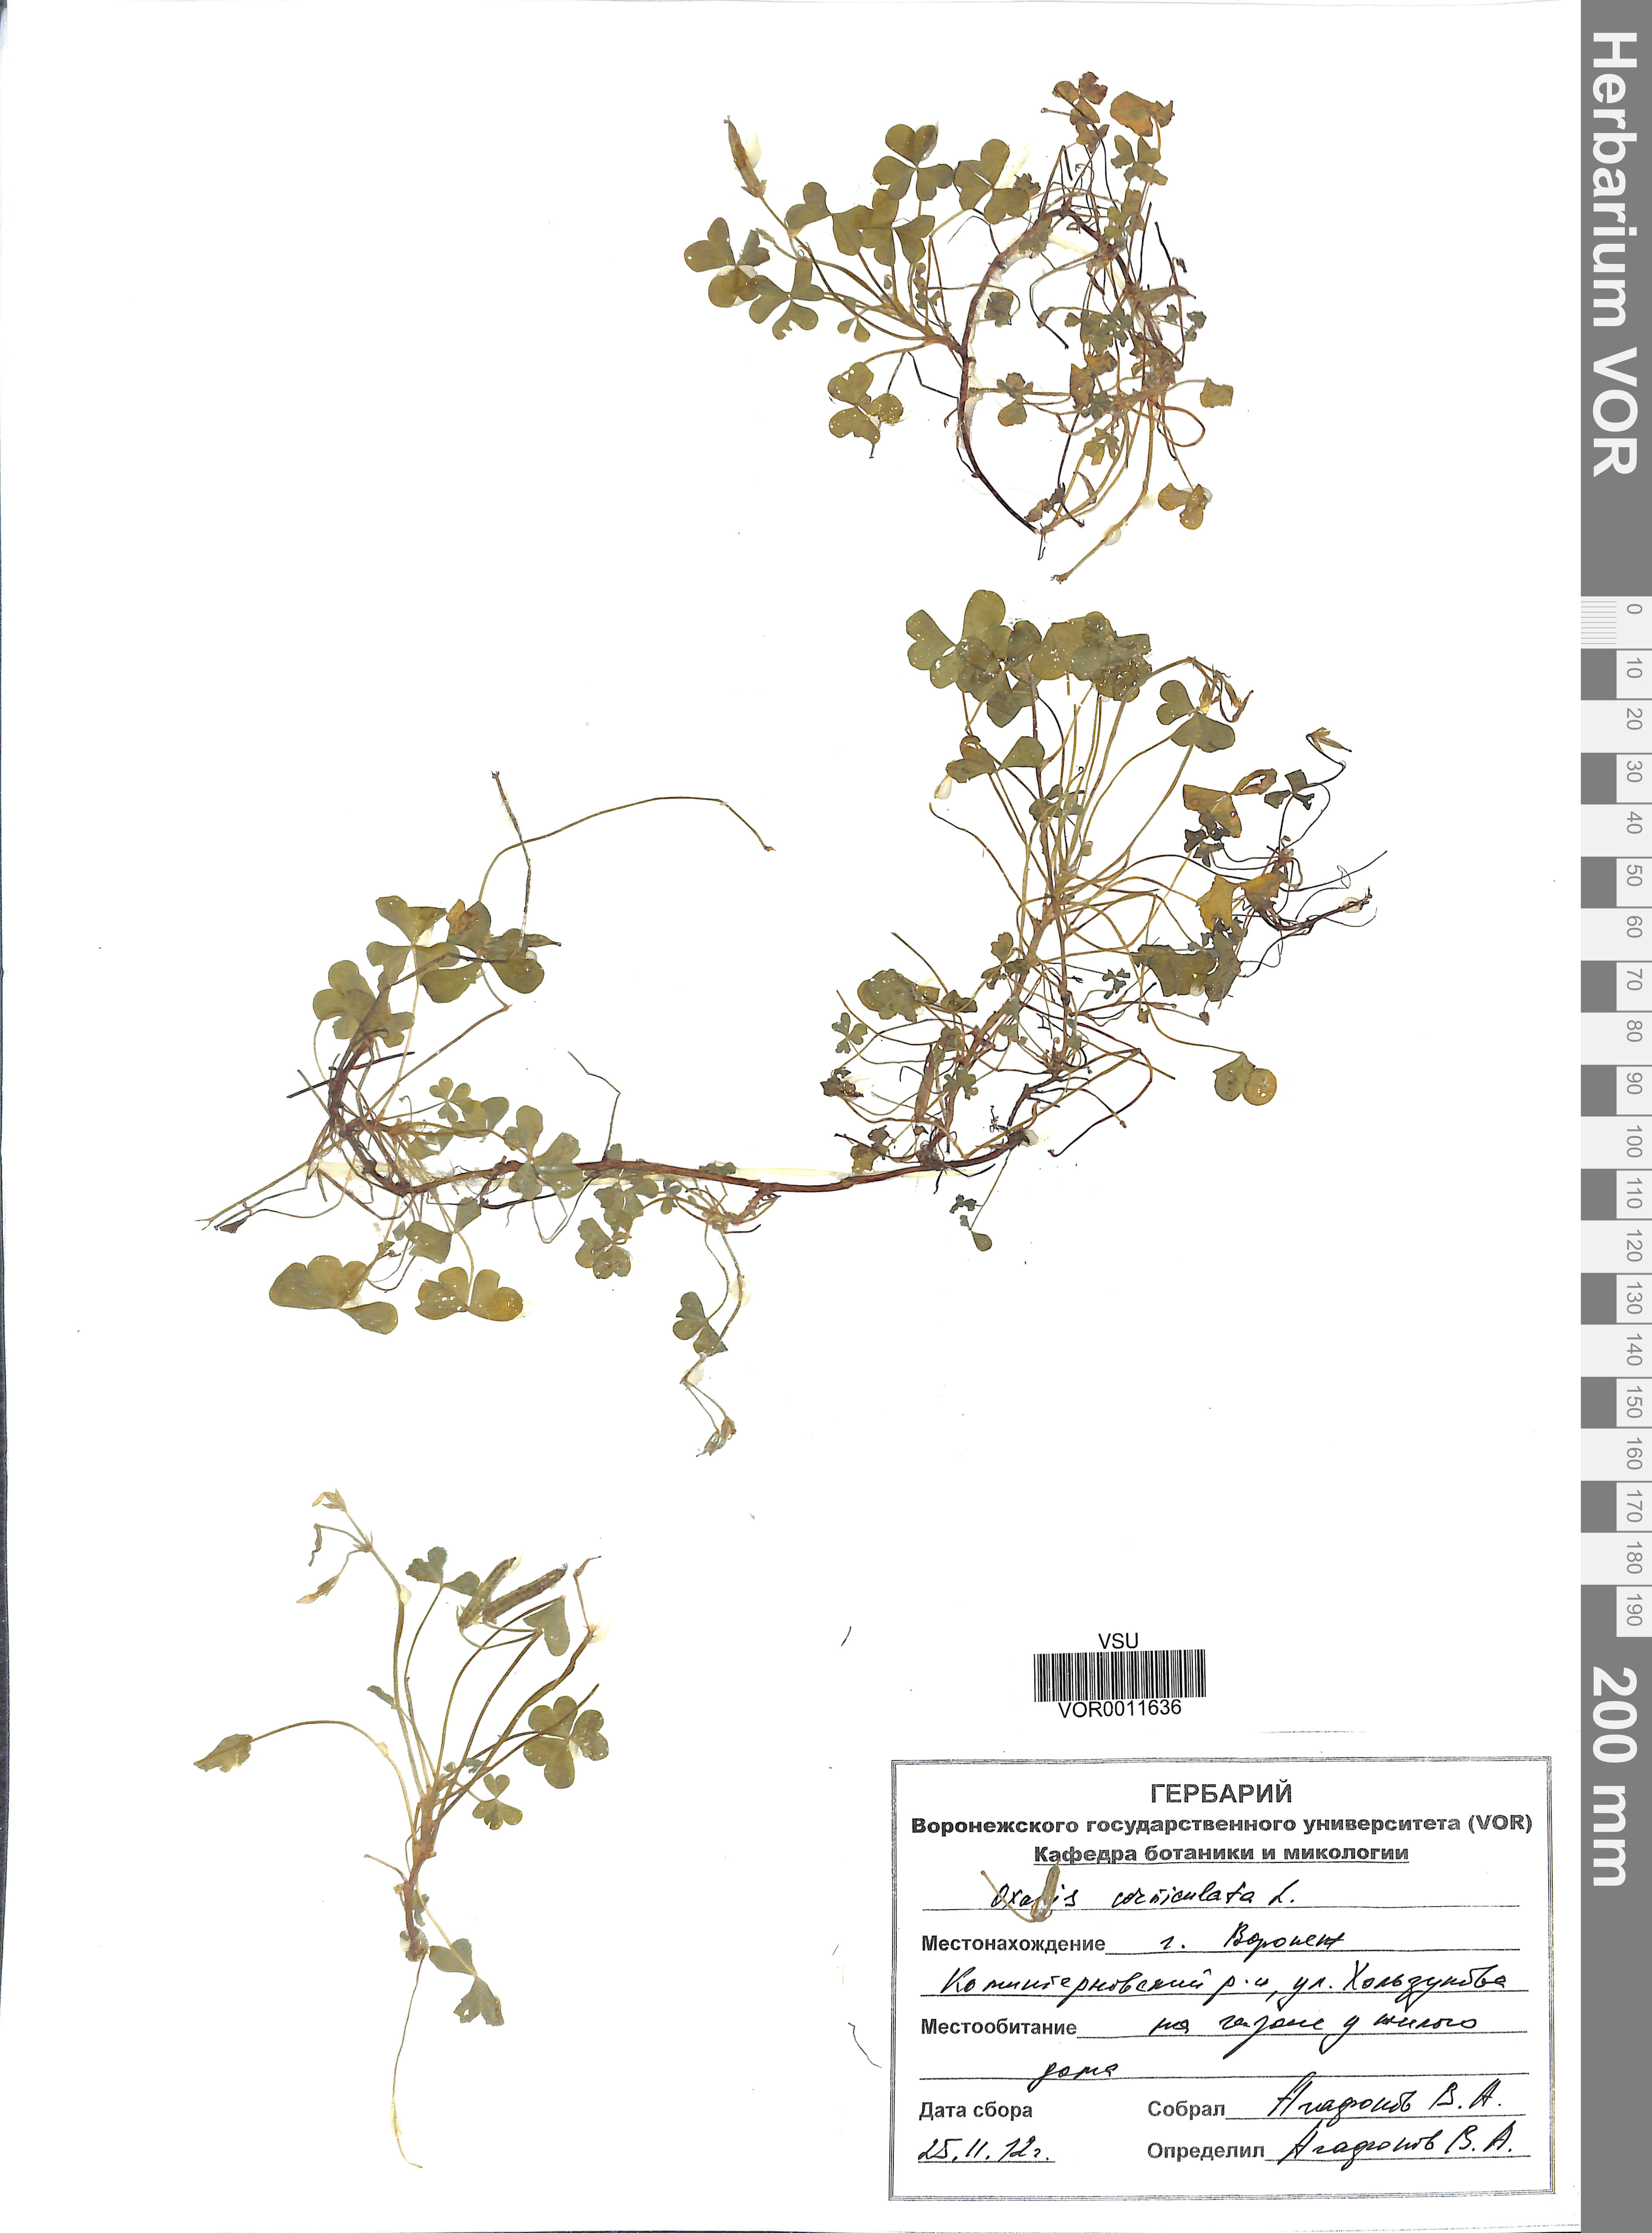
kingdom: Plantae
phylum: Tracheophyta
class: Magnoliopsida
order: Malpighiales
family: Linaceae
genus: Linum
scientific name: Linum ucranicum
